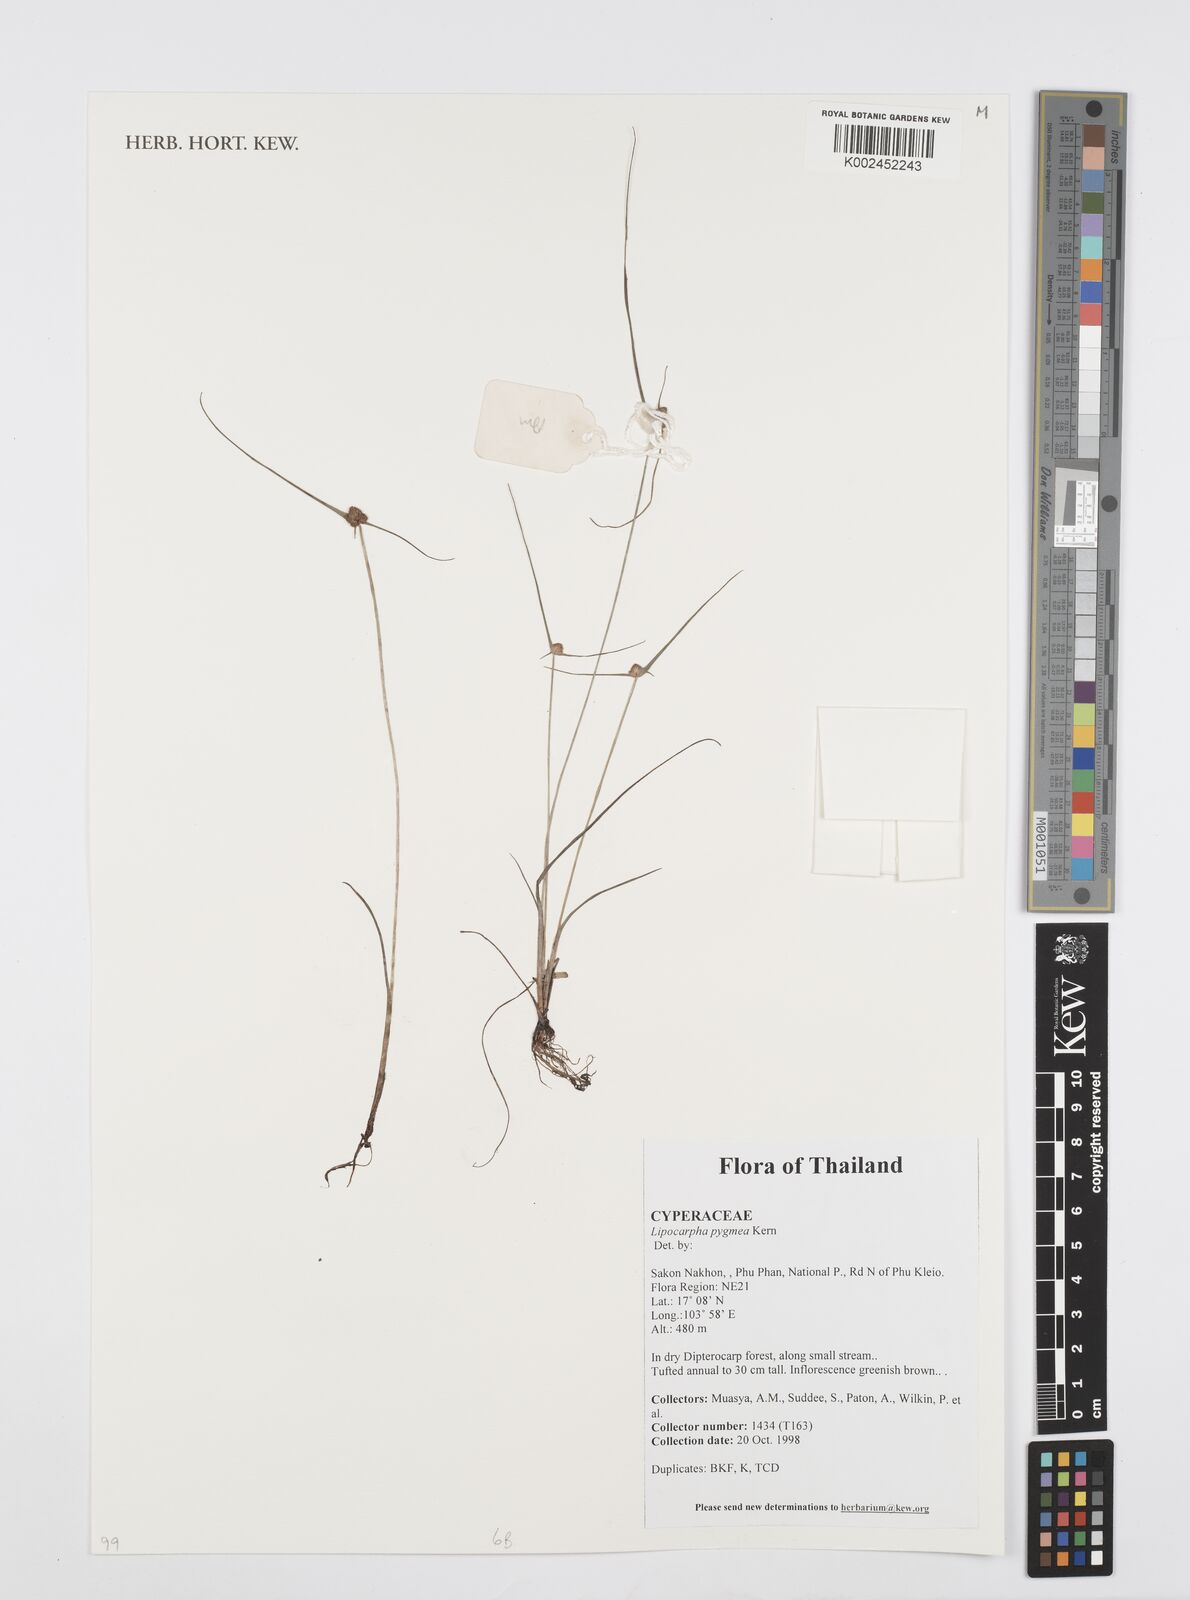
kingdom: Plantae
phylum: Tracheophyta
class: Liliopsida
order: Poales
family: Cyperaceae
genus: Cyperus
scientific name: Cyperus
